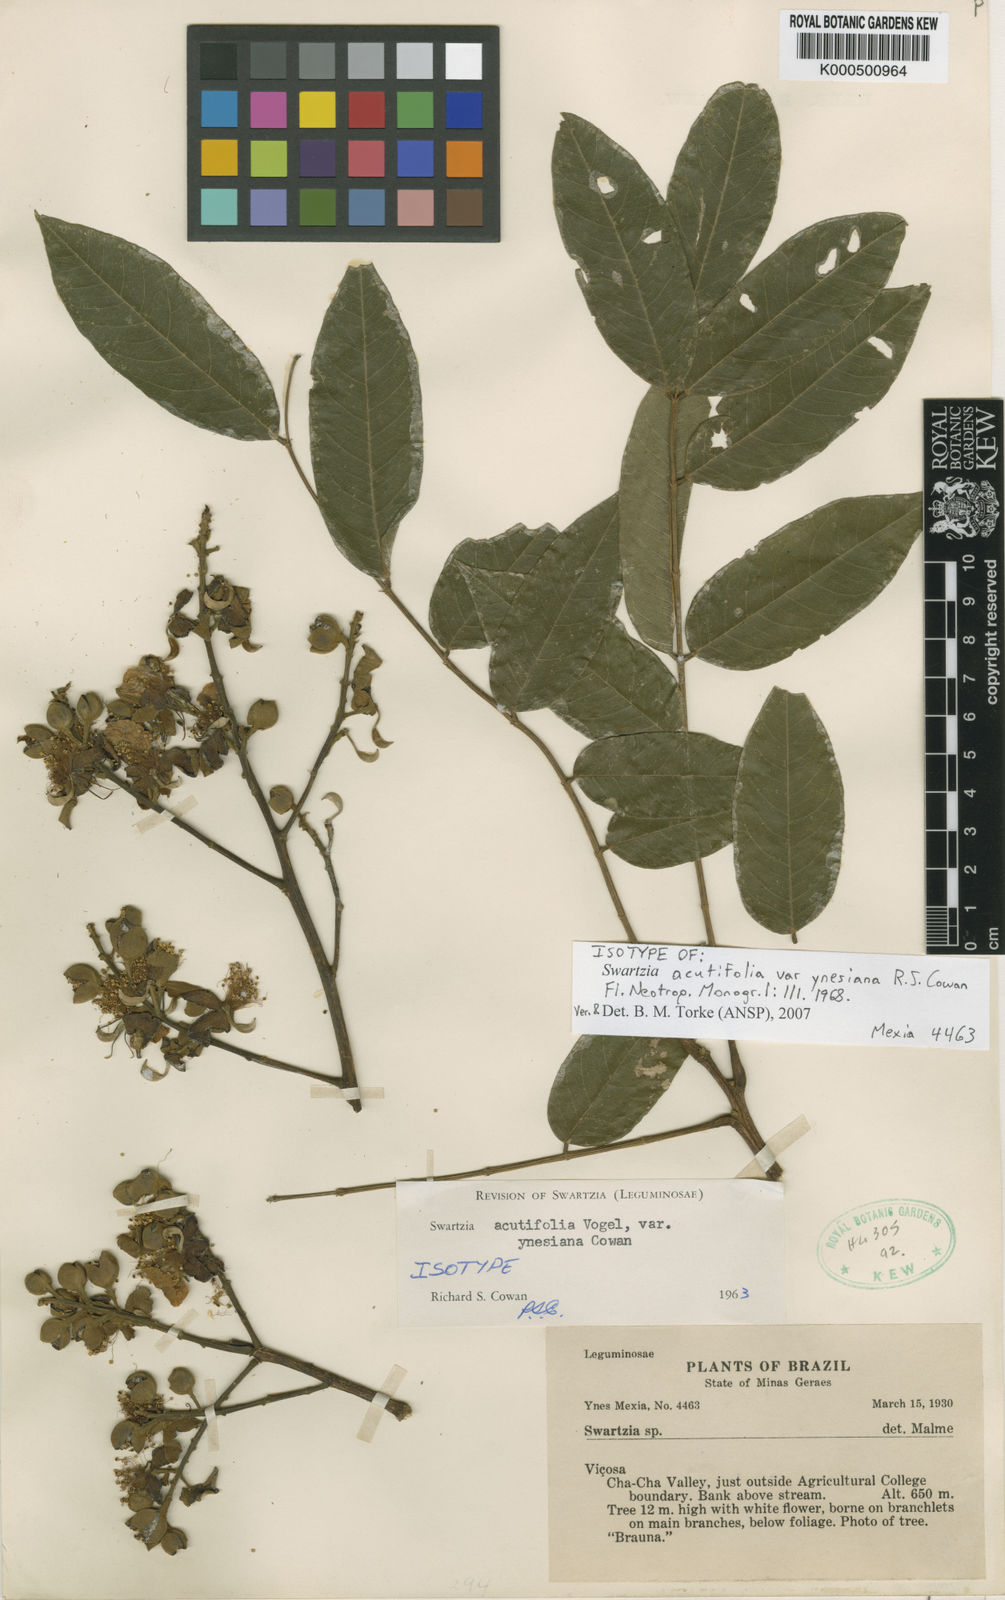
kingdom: Plantae
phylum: Tracheophyta
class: Magnoliopsida
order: Fabales
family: Fabaceae
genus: Swartzia
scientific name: Swartzia acutifolia
